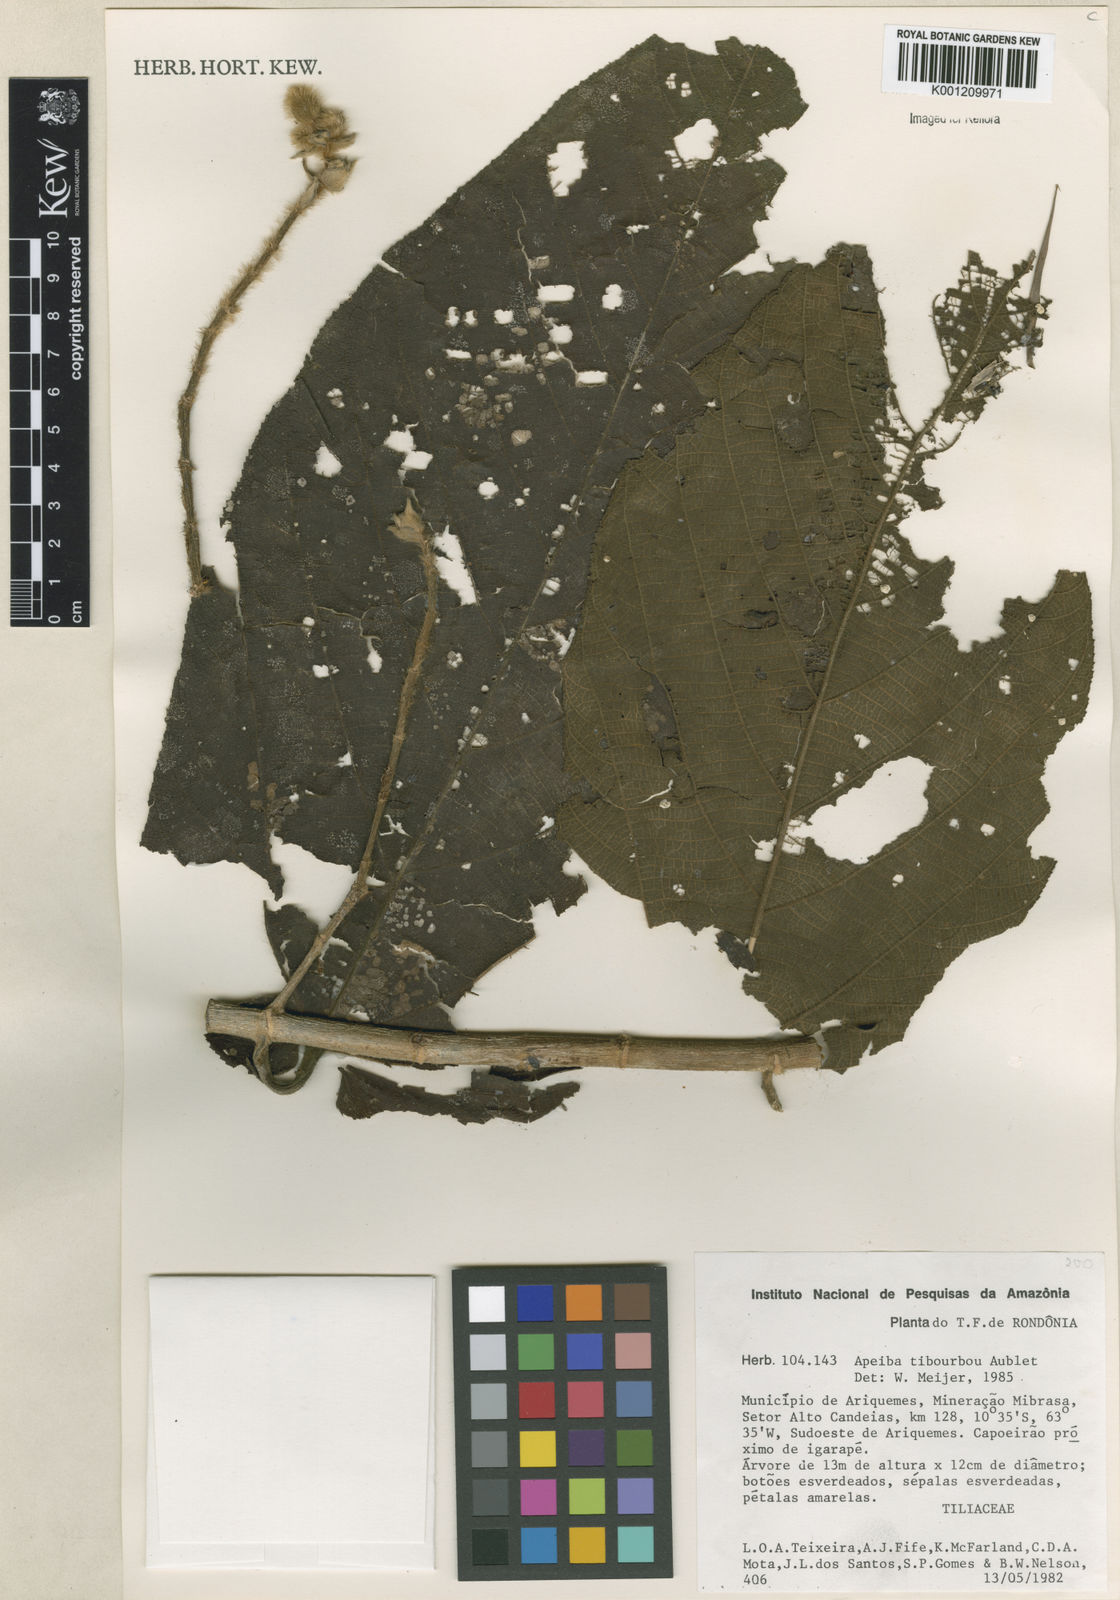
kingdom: Plantae
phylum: Tracheophyta
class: Magnoliopsida
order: Malvales
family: Malvaceae
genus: Apeiba
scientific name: Apeiba tibourbou
